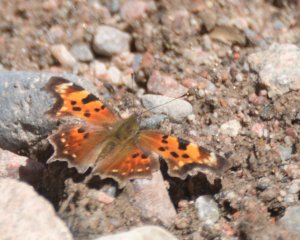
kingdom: Animalia
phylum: Arthropoda
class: Insecta
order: Lepidoptera
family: Nymphalidae
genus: Polygonia
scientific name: Polygonia faunus
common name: Green Comma
